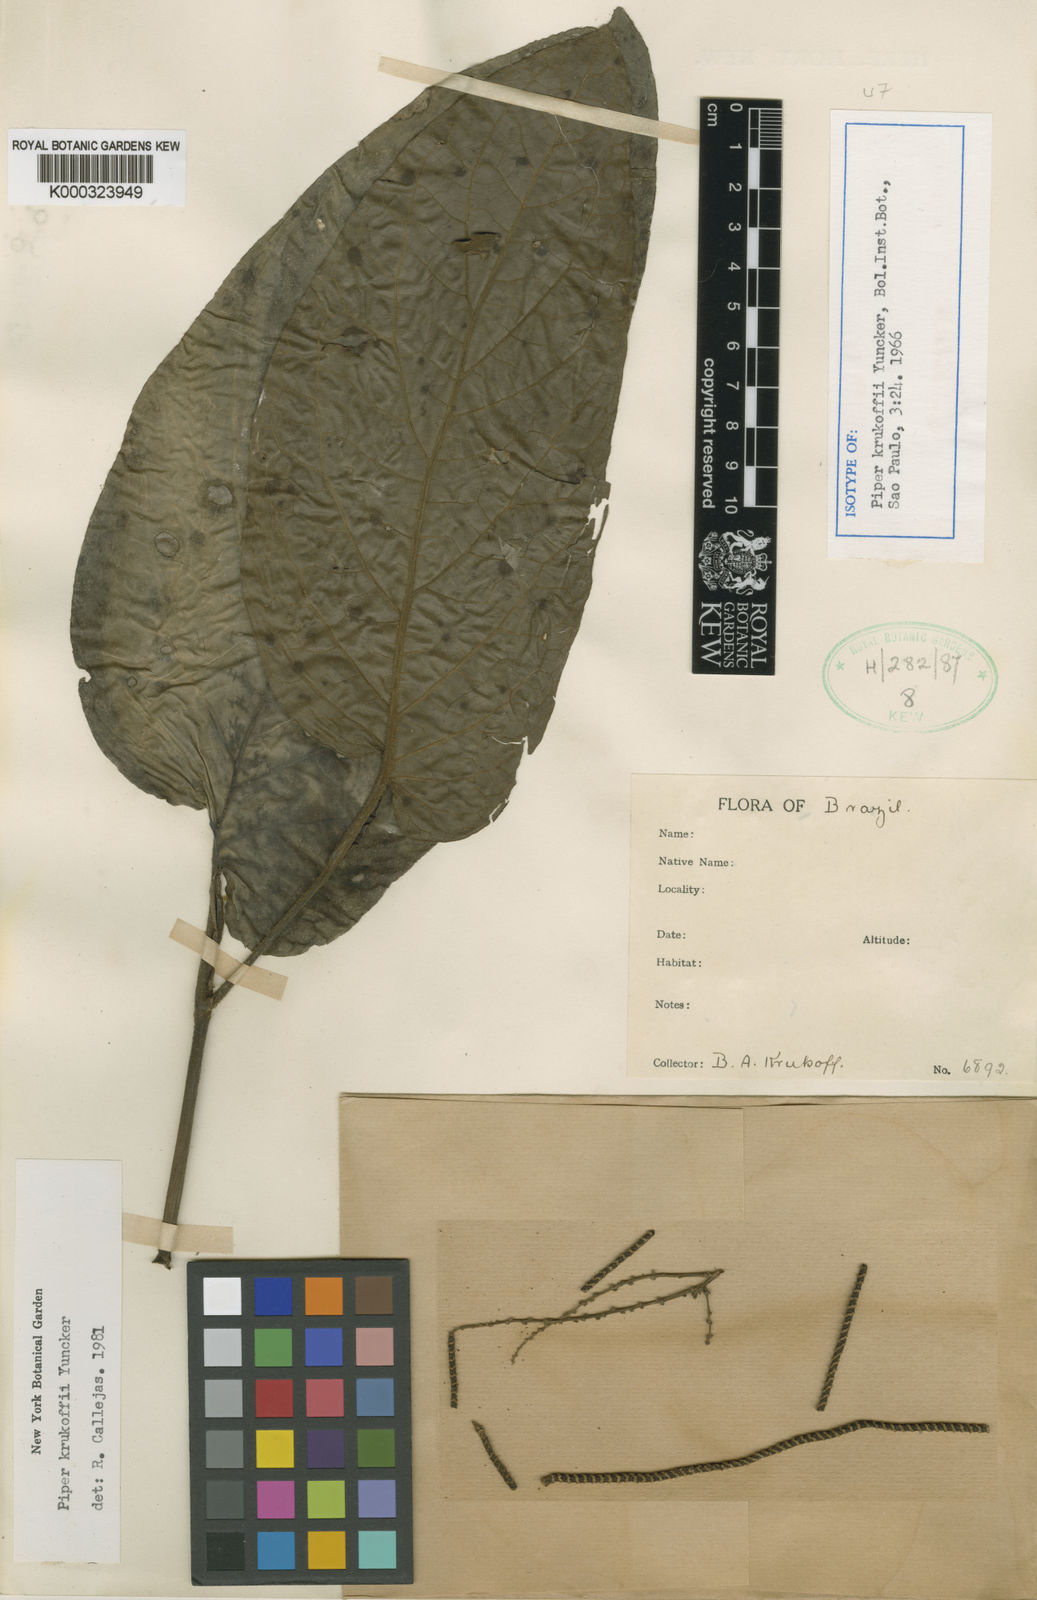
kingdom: Plantae
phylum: Tracheophyta
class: Magnoliopsida
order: Piperales
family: Piperaceae
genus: Piper
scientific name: Piper obliquum
